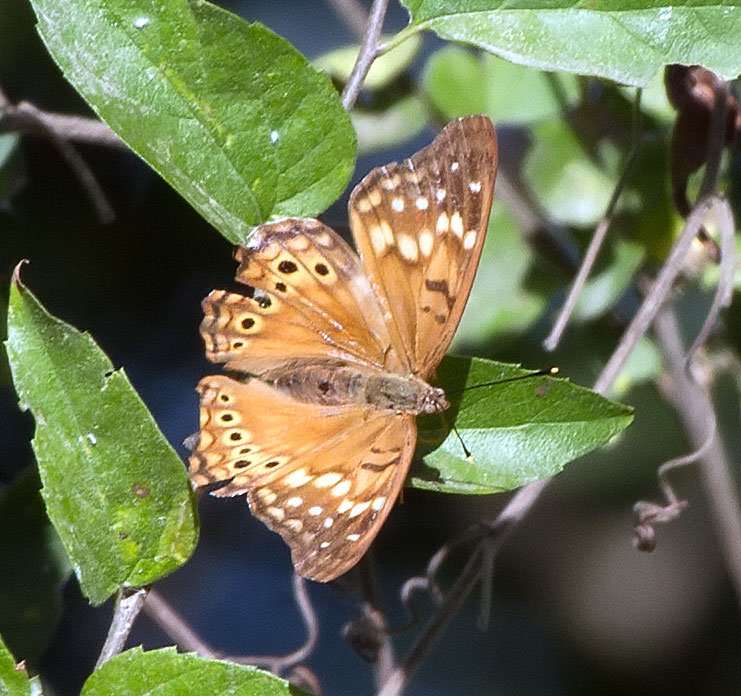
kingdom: Animalia
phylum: Arthropoda
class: Insecta
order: Lepidoptera
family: Nymphalidae
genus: Asterocampa
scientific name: Asterocampa clyton
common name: Tawny Emperor
